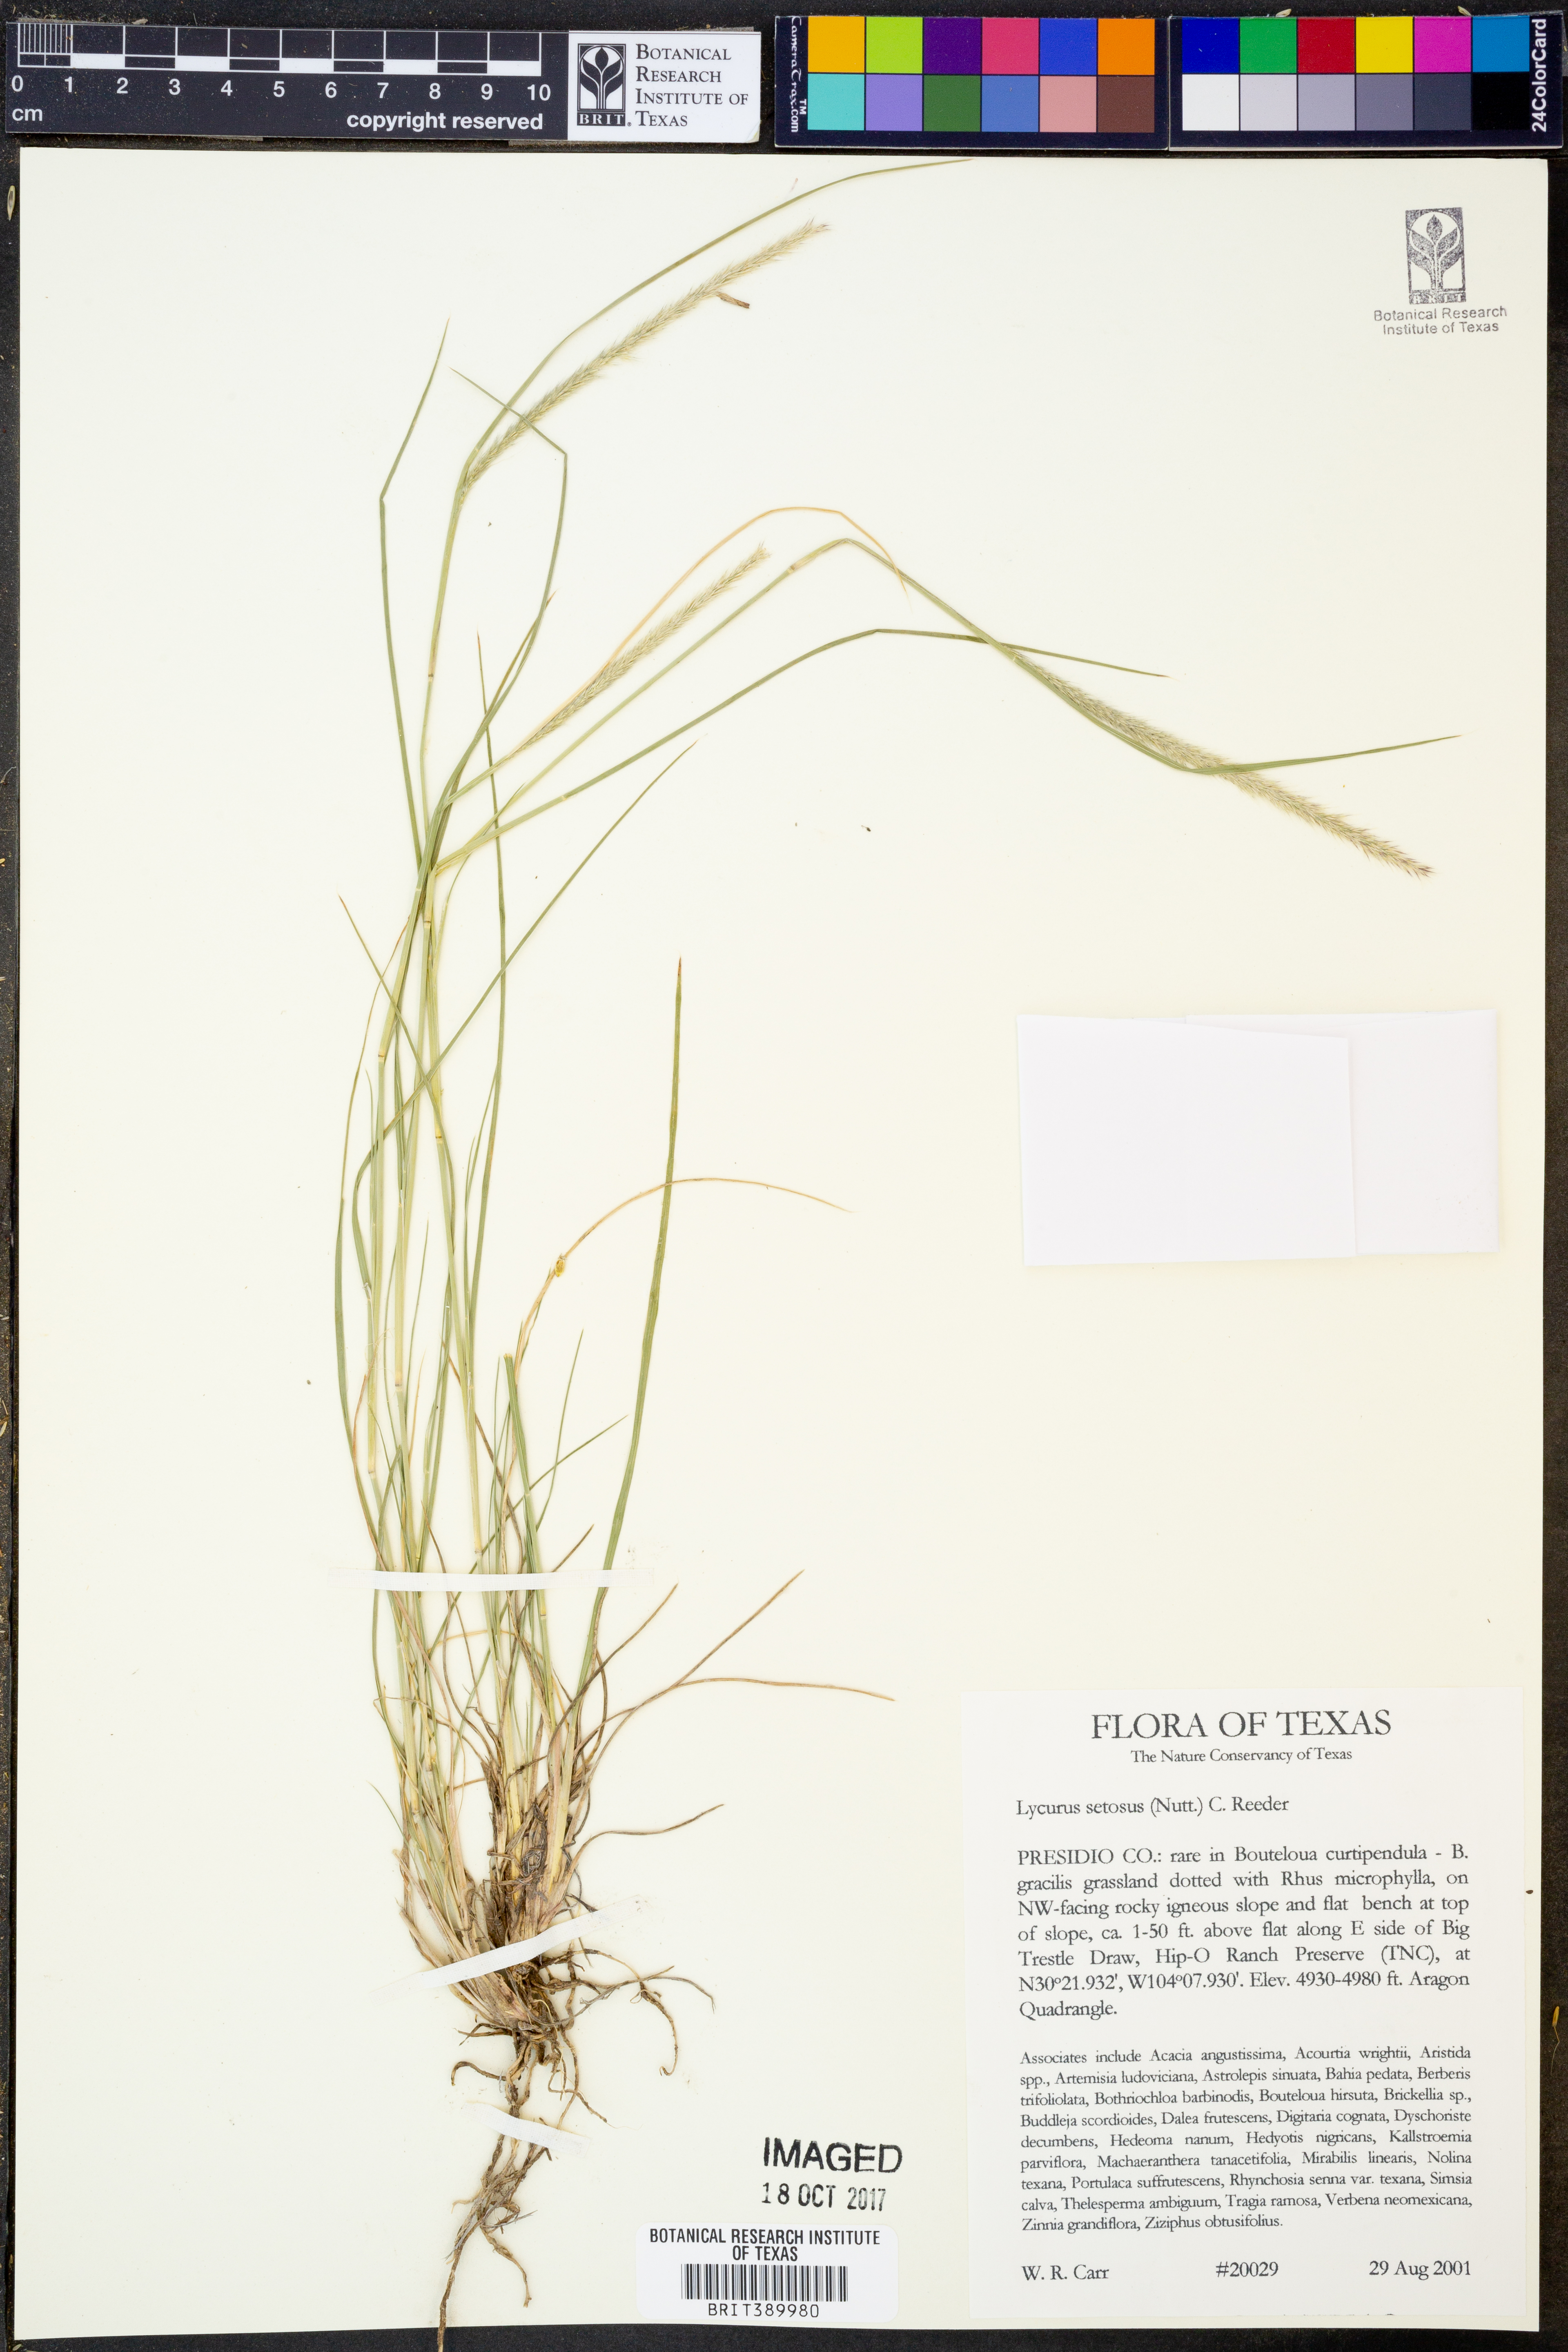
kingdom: Plantae
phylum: Tracheophyta
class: Liliopsida
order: Poales
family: Poaceae
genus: Muhlenbergia
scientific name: Muhlenbergia alopecuroides
